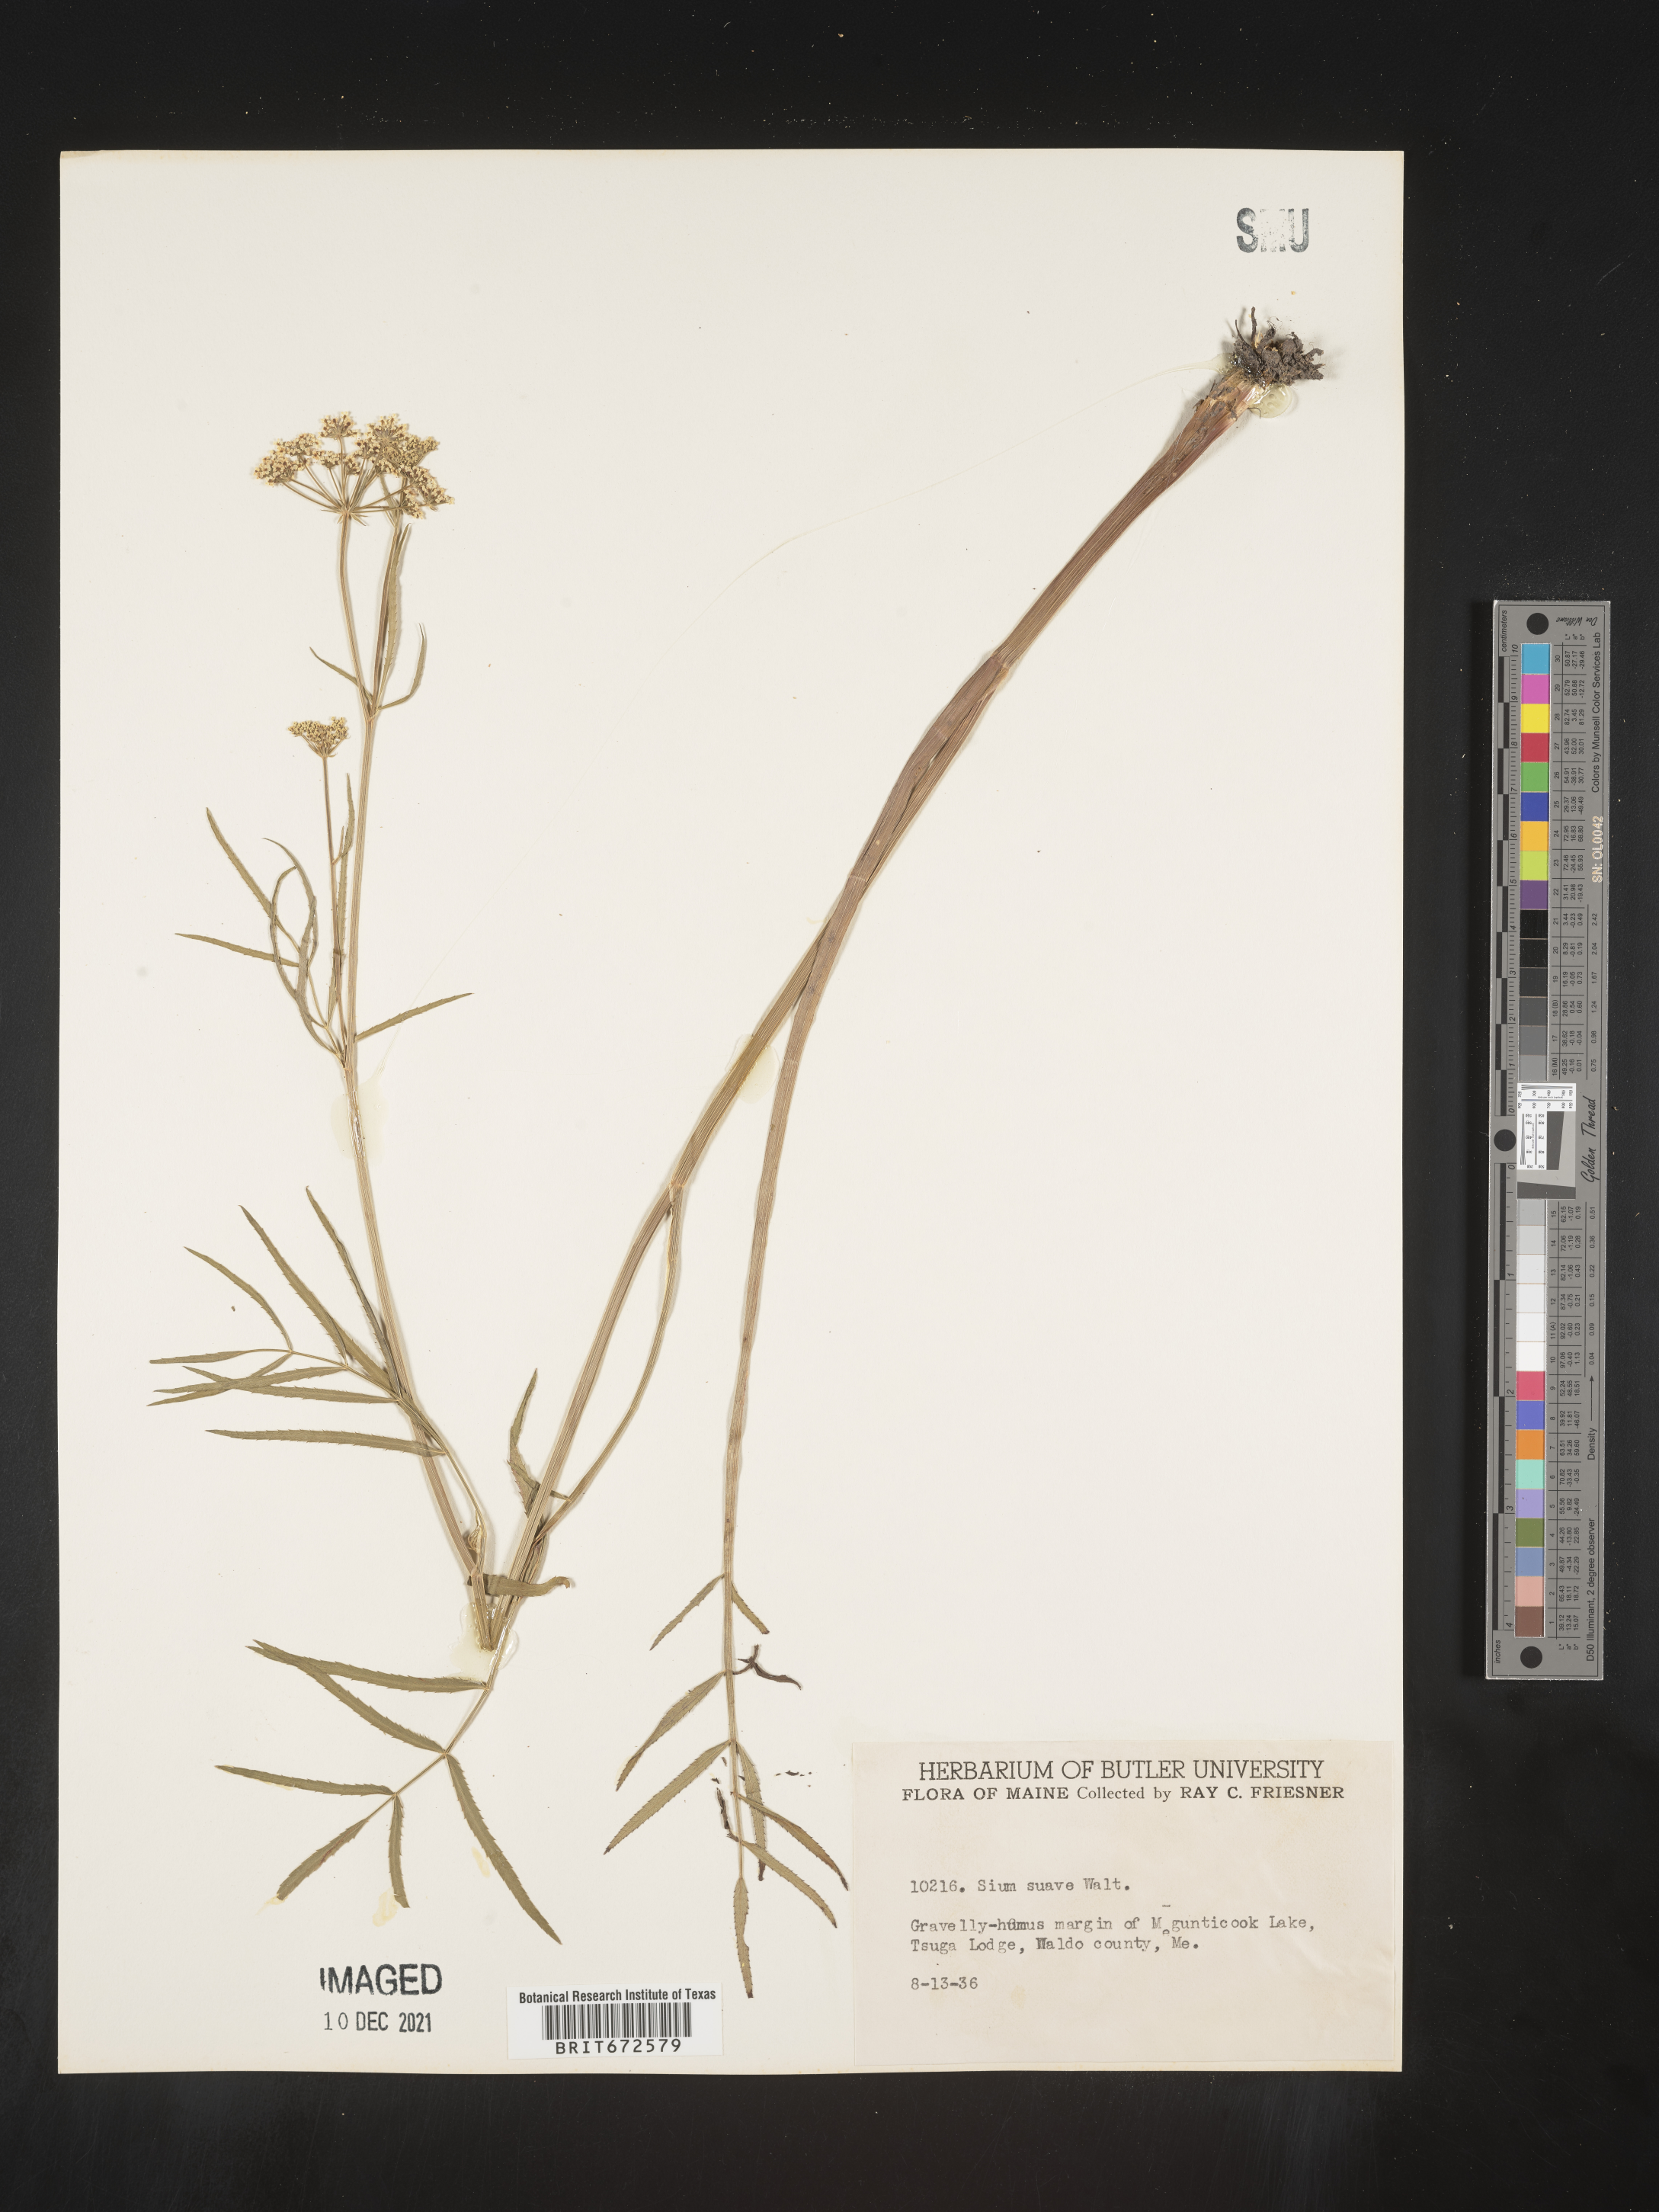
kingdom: Plantae
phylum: Tracheophyta
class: Magnoliopsida
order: Apiales
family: Apiaceae
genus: Sium
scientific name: Sium suave
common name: Hemlock water-parsnip
